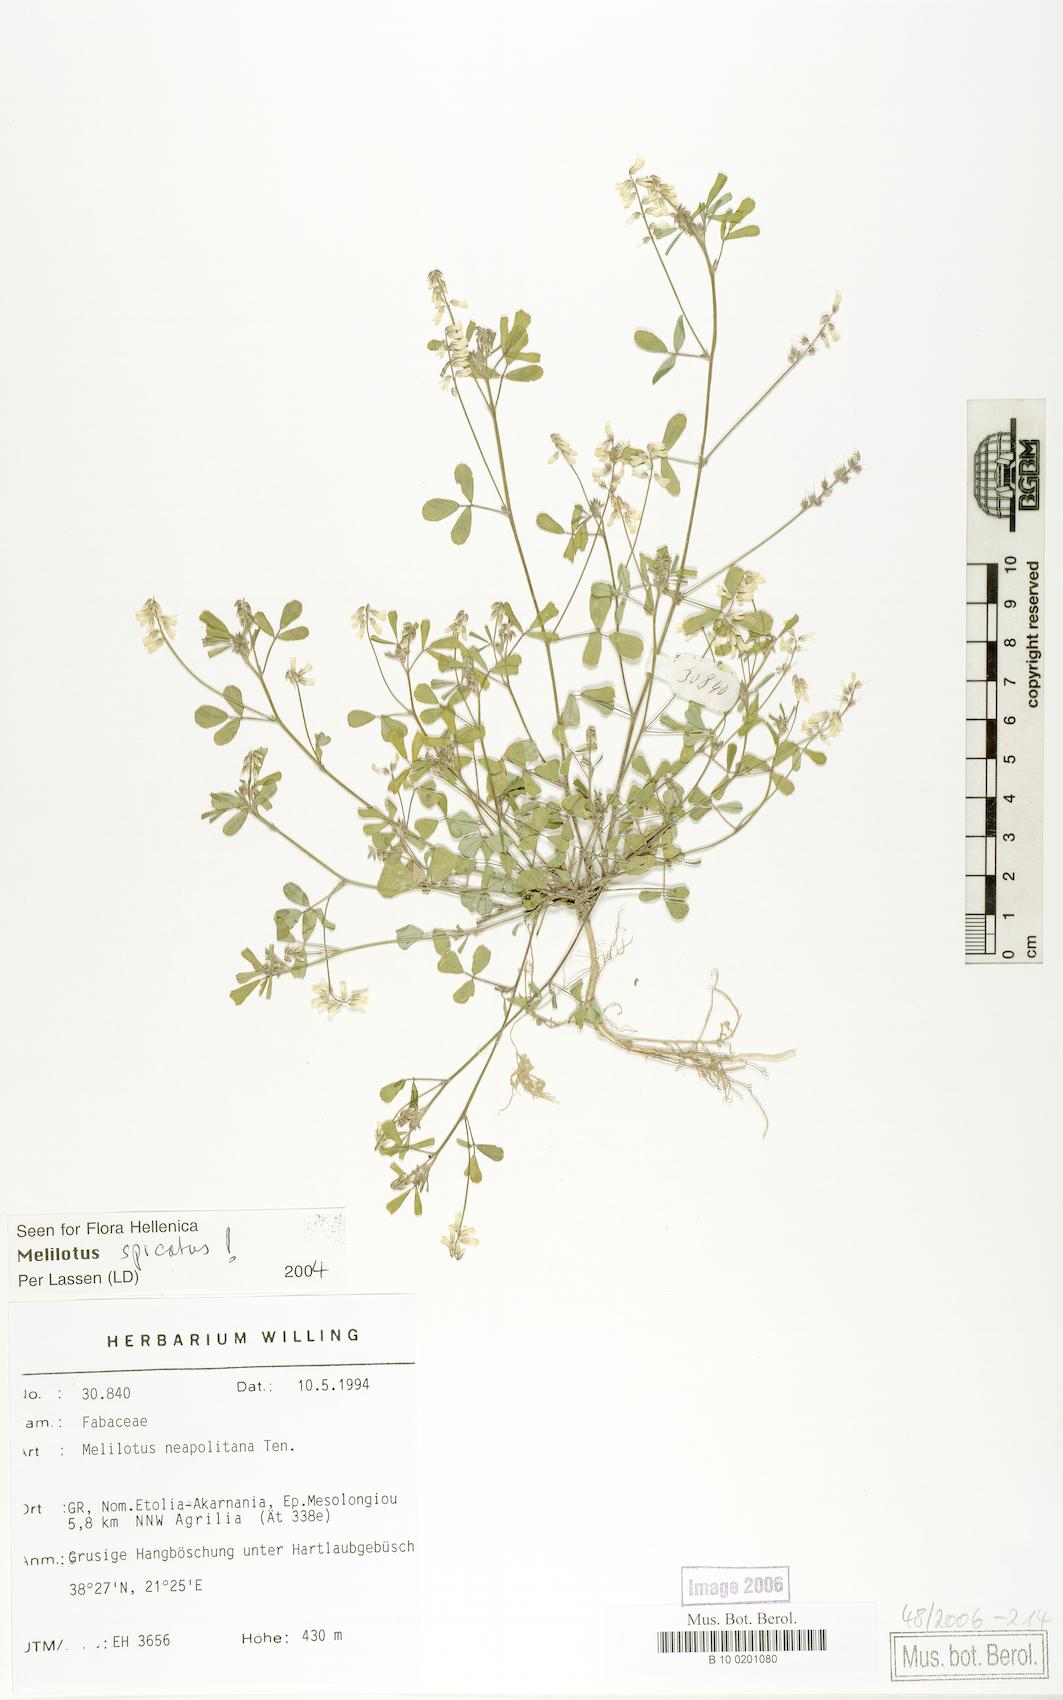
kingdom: Plantae
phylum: Tracheophyta
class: Magnoliopsida
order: Fabales
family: Fabaceae
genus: Melilotus
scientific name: Melilotus neapolitanus
